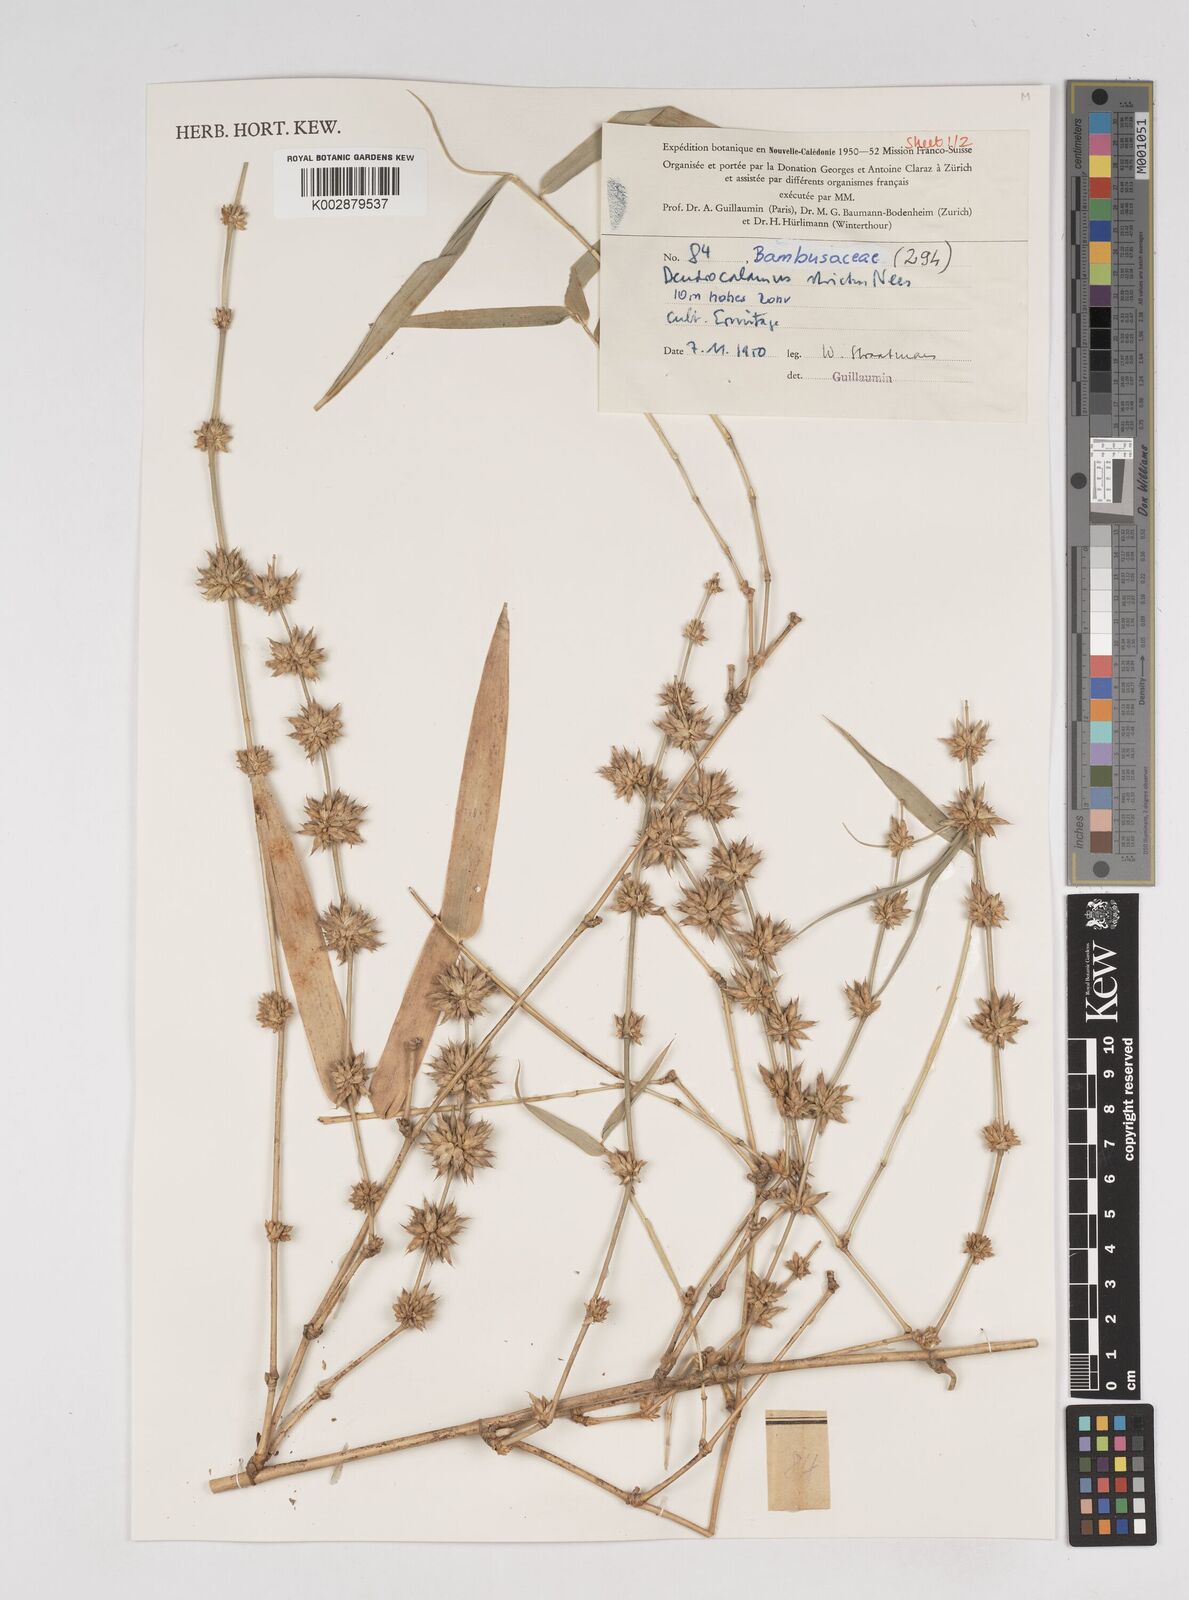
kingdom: Plantae
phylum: Tracheophyta
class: Liliopsida
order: Poales
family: Poaceae
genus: Dendrocalamus
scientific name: Dendrocalamus strictus
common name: Male bamboo
